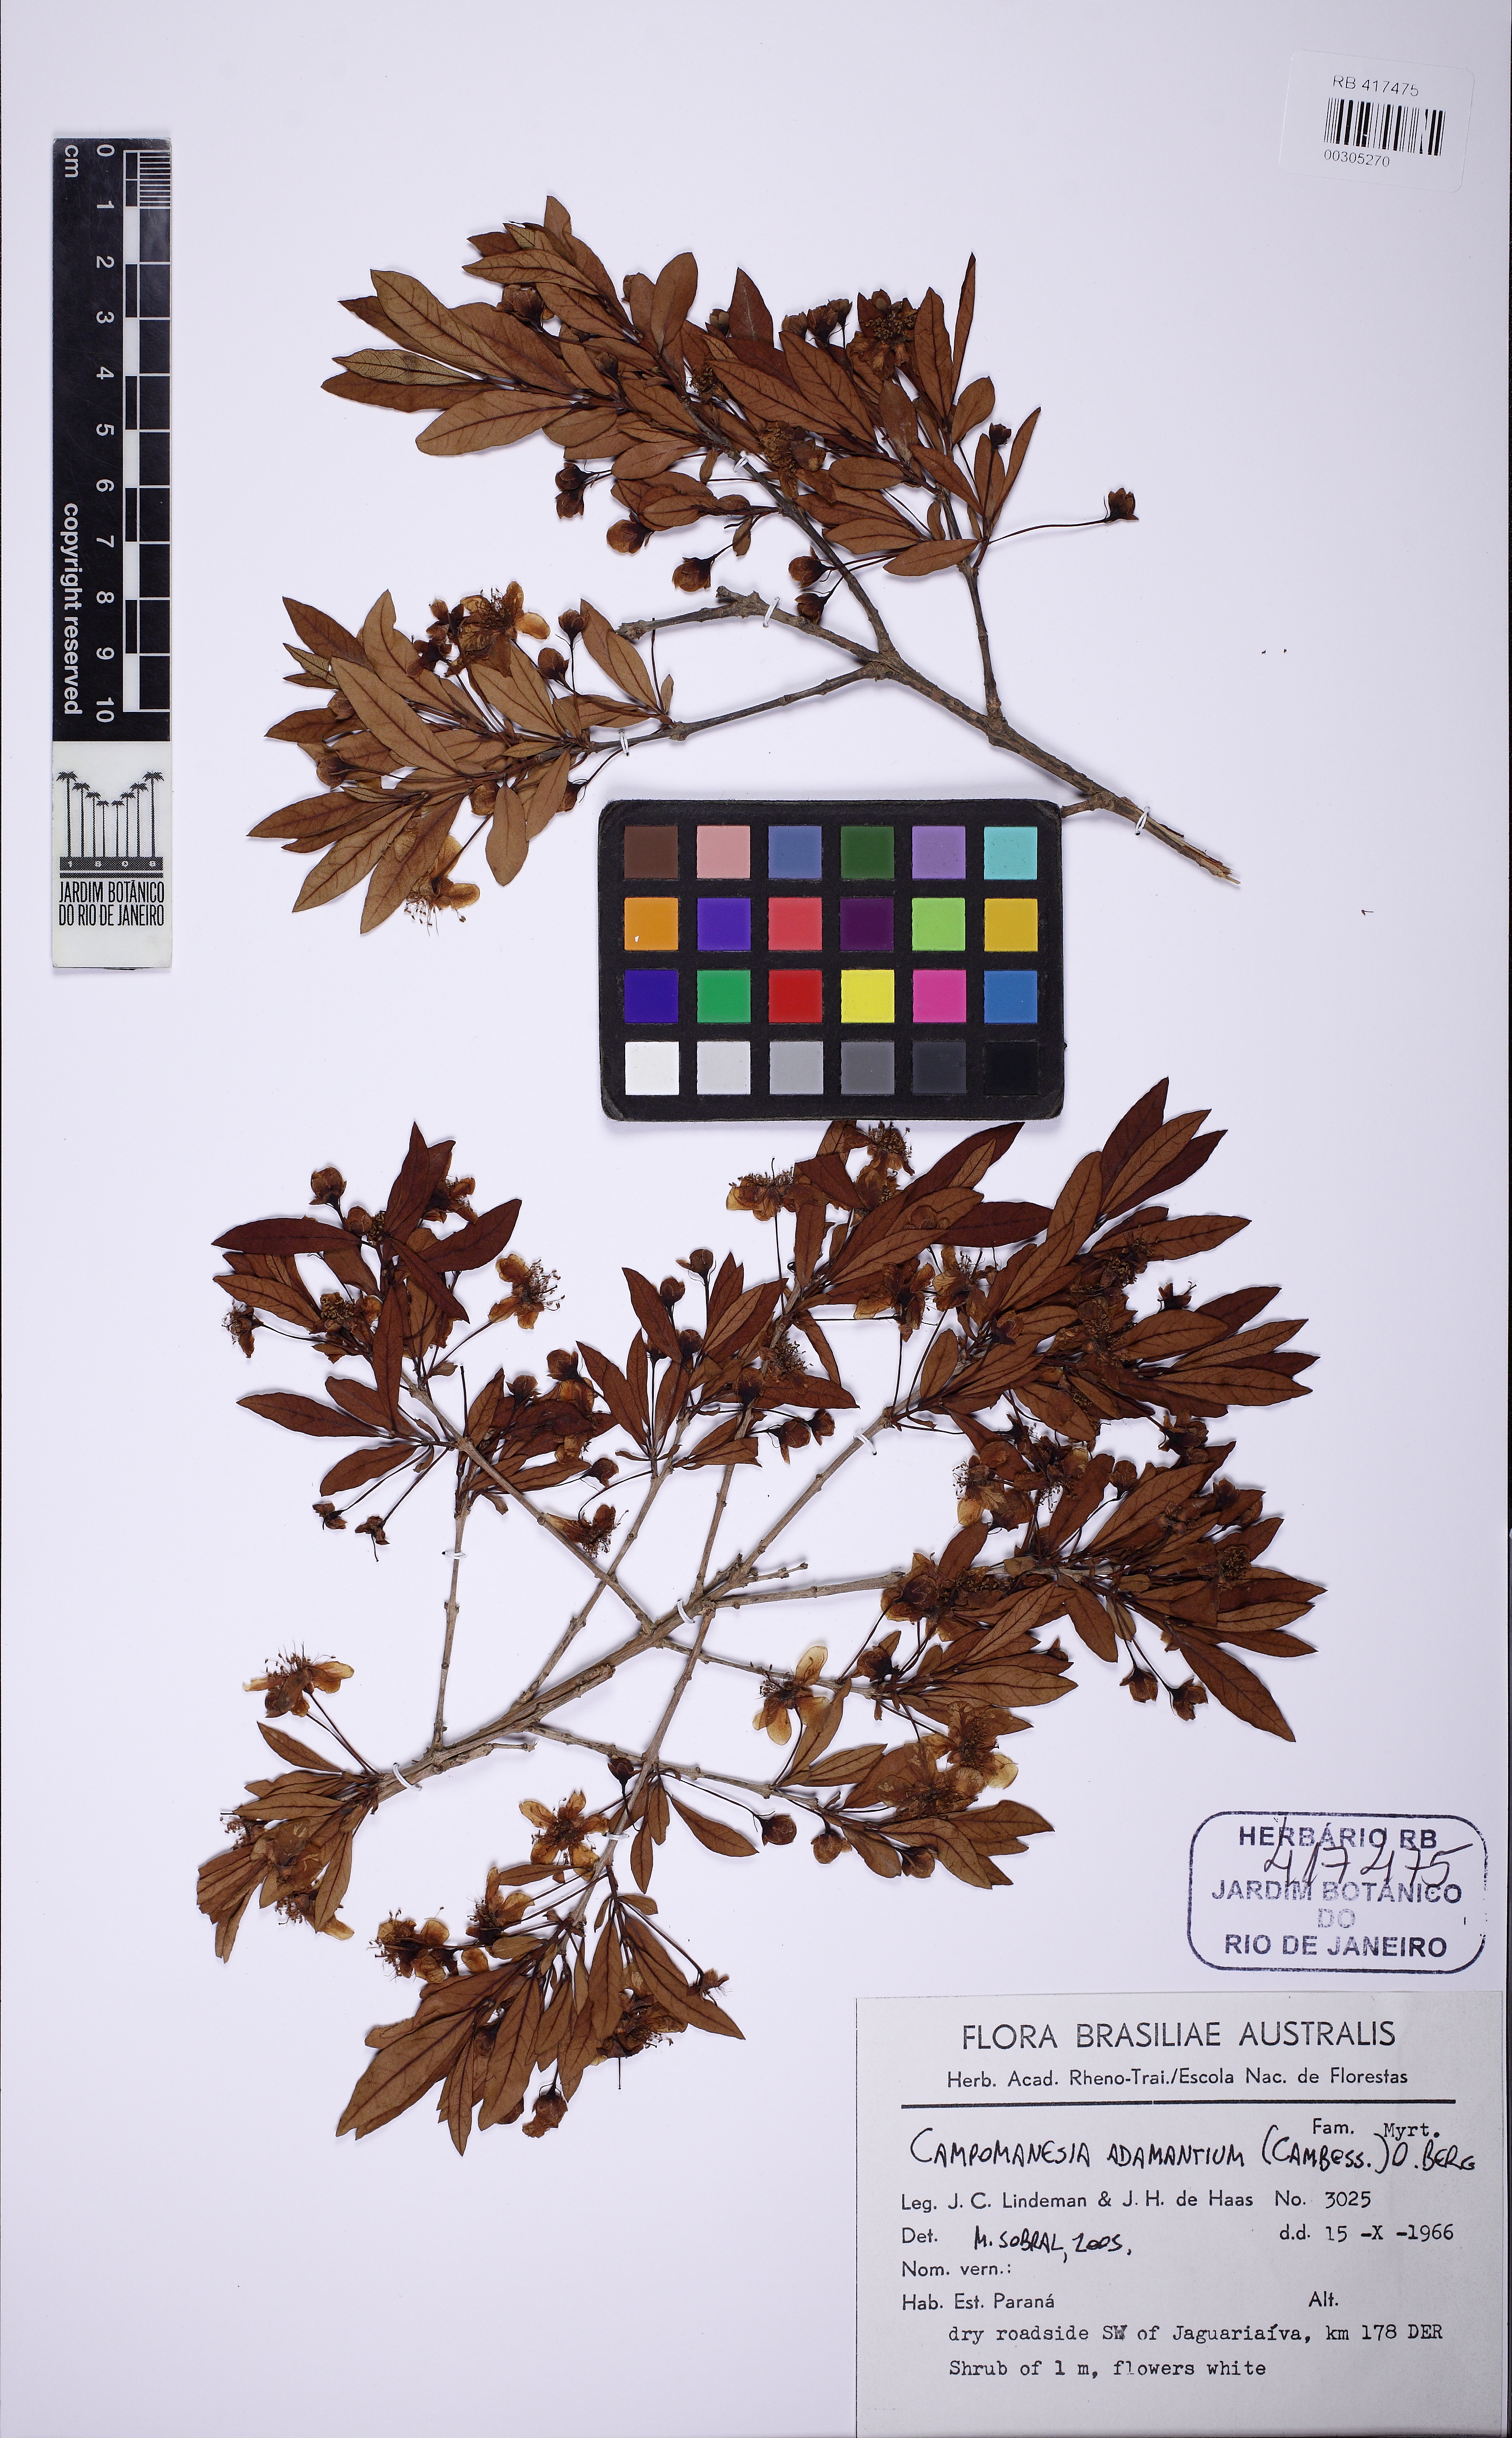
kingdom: Plantae
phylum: Tracheophyta
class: Magnoliopsida
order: Myrtales
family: Myrtaceae
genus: Campomanesia
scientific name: Campomanesia adamantium
